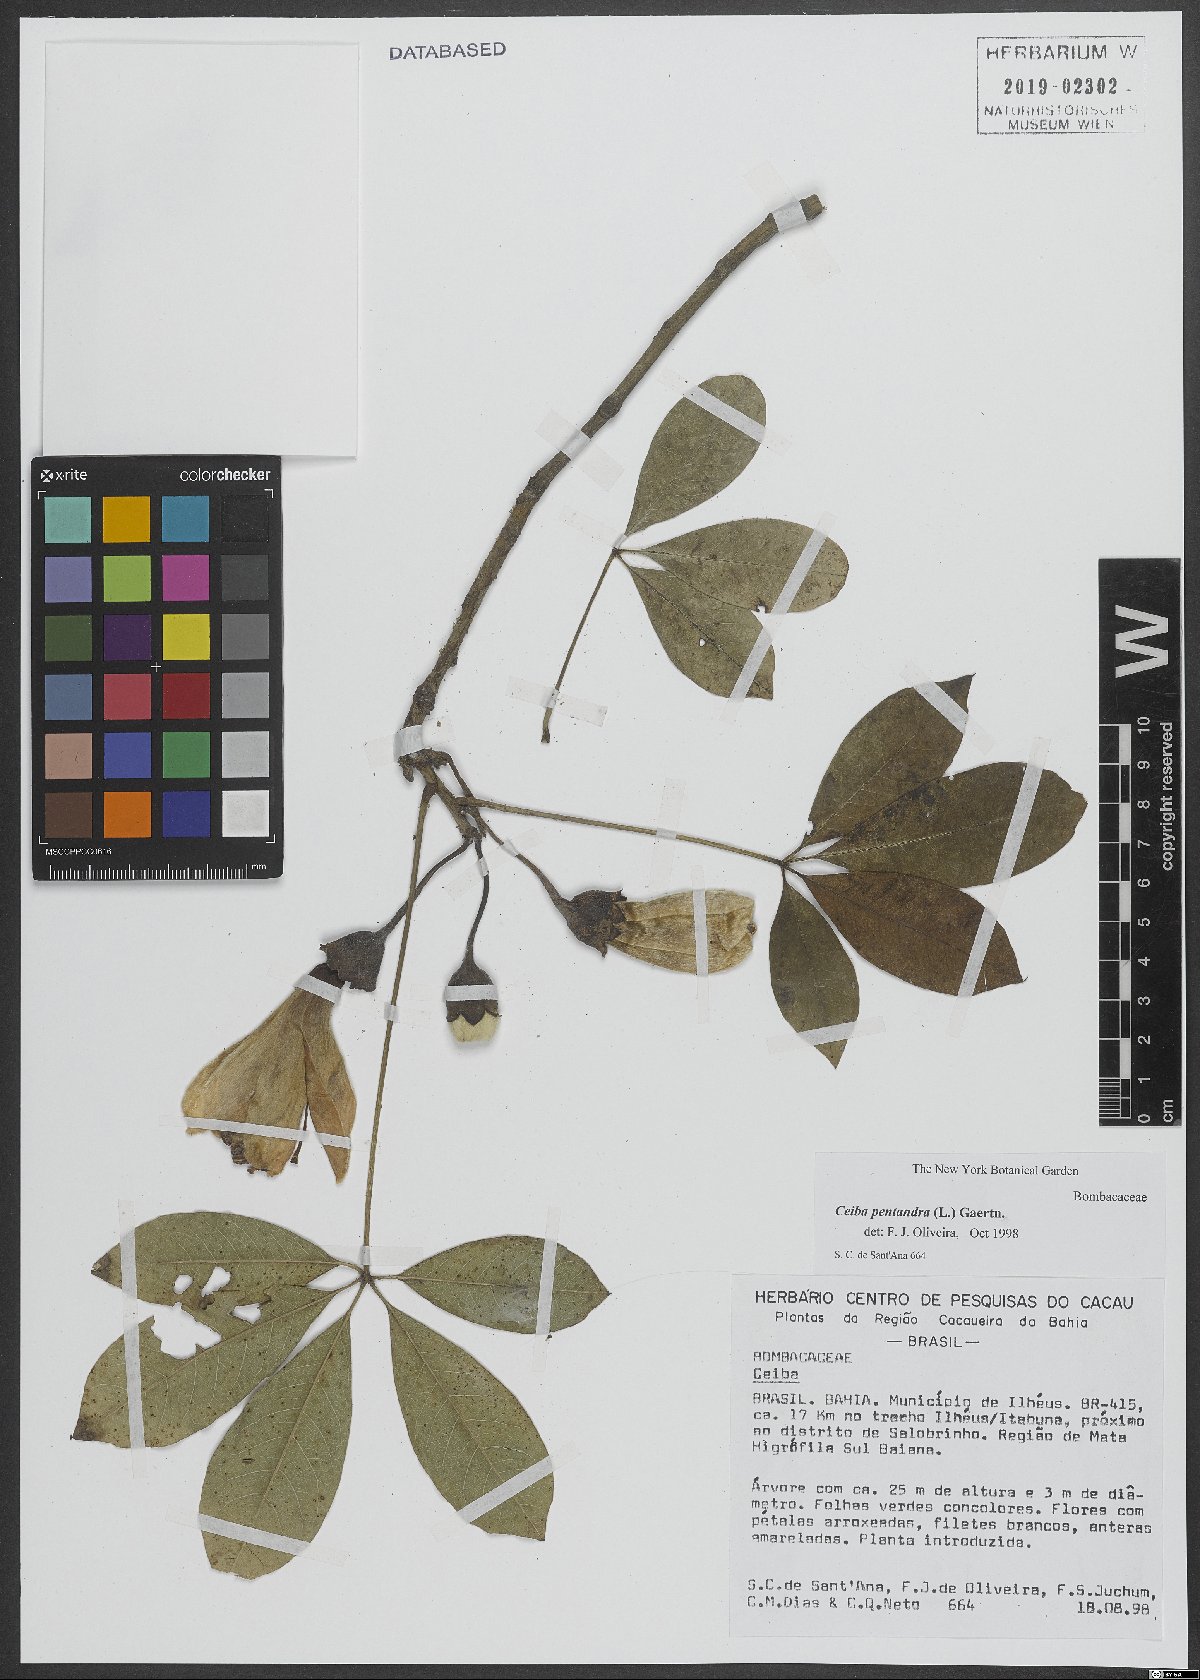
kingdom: Plantae
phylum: Tracheophyta
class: Magnoliopsida
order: Malvales
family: Malvaceae
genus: Ceiba
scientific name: Ceiba pentandra
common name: Kapok
